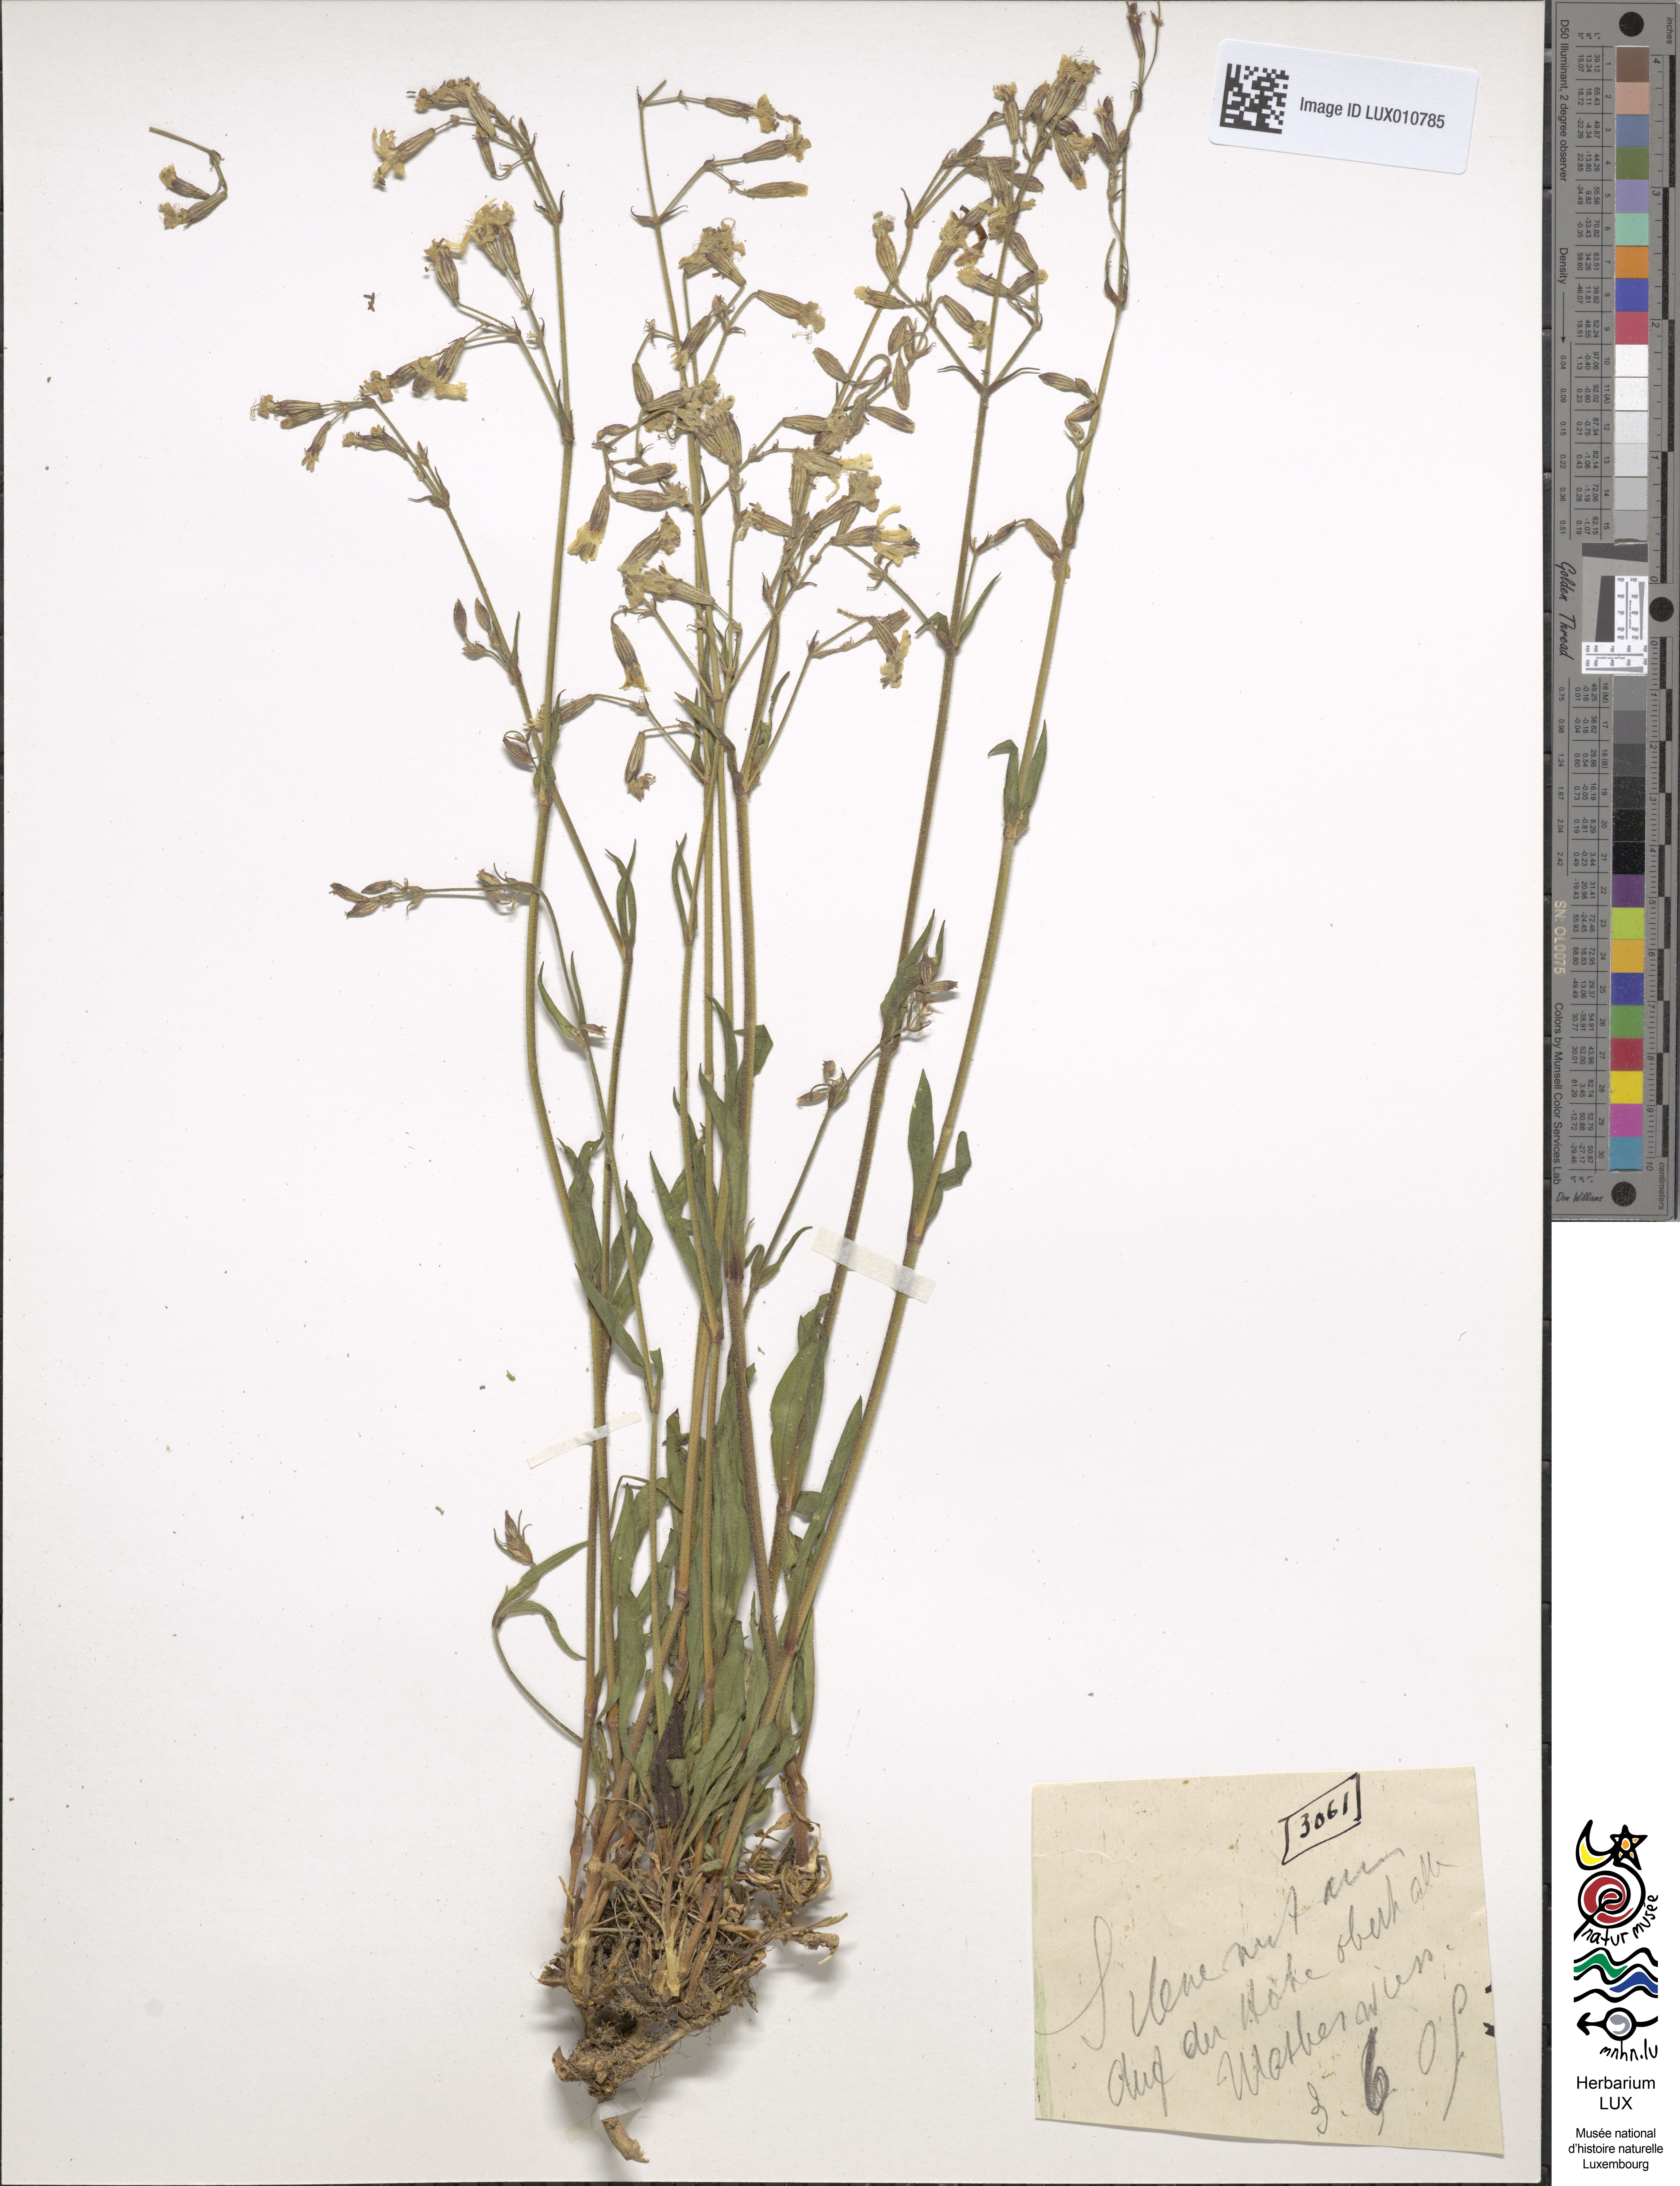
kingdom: Plantae
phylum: Tracheophyta
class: Magnoliopsida
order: Caryophyllales
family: Caryophyllaceae
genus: Silene
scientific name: Silene nutans
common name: Nottingham catchfly
